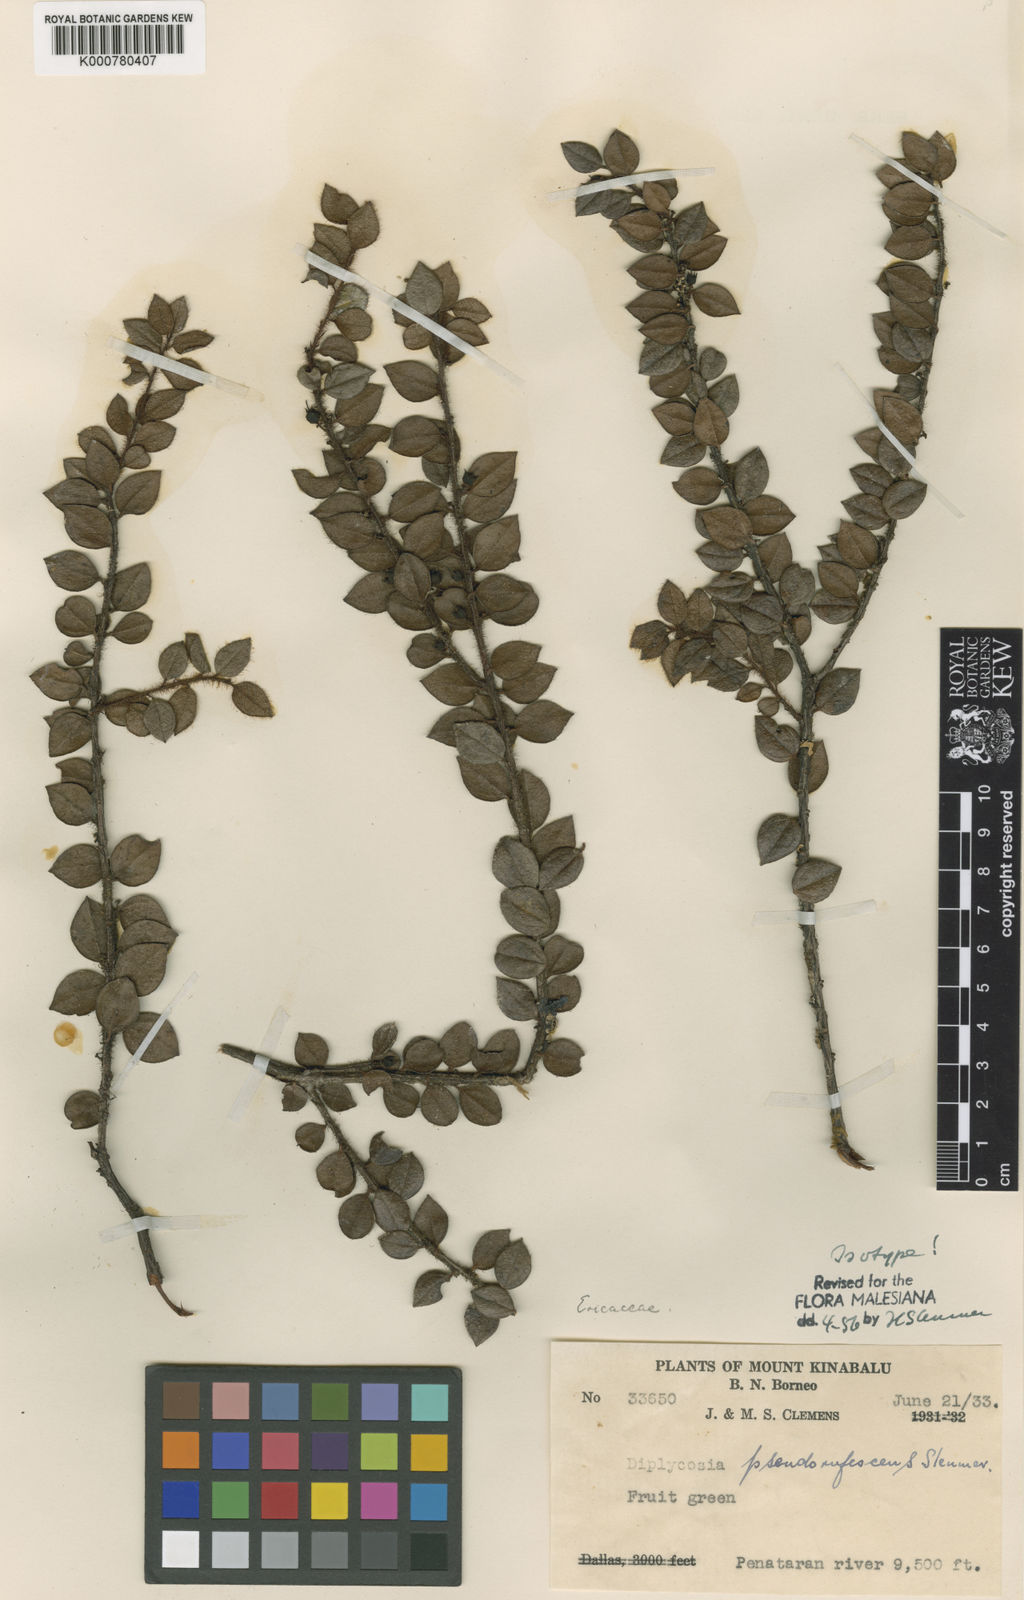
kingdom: Plantae
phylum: Tracheophyta
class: Magnoliopsida
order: Ericales
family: Ericaceae
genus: Gaultheria
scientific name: Gaultheria pseudorufescens
